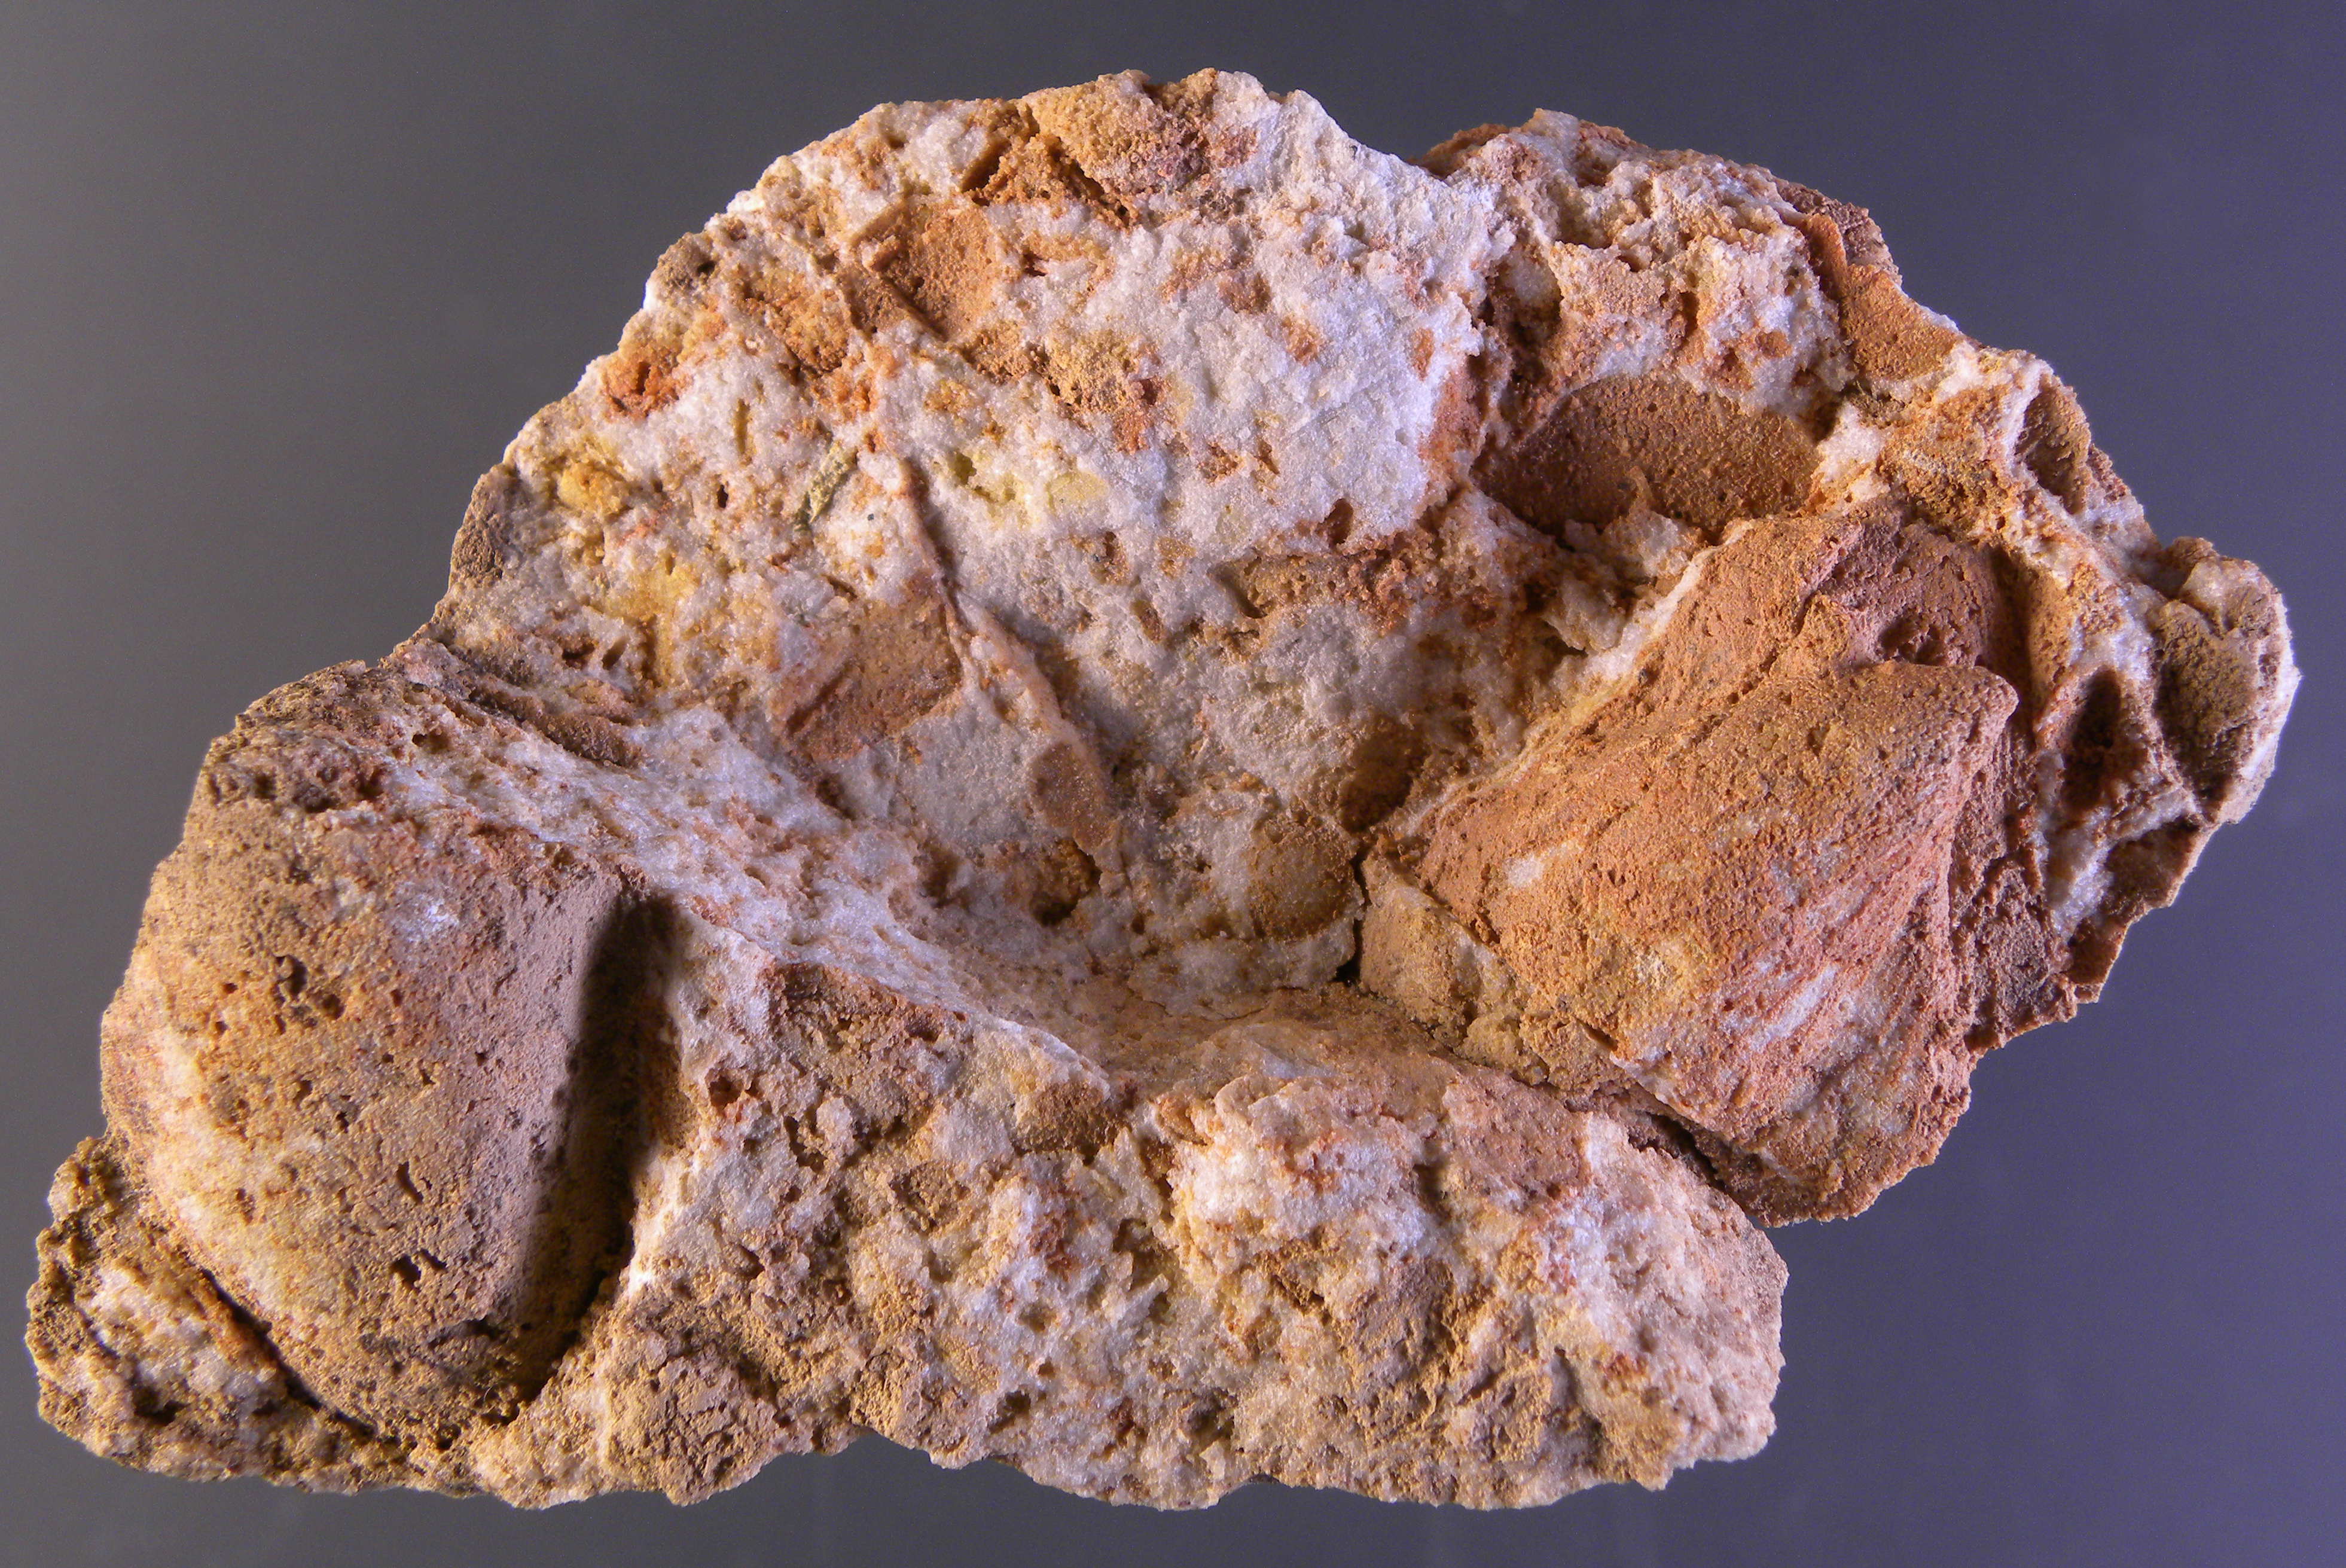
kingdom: Animalia
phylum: Mollusca
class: Bivalvia
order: Ostreida
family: Pterineidae
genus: Ptychopteria
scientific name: Ptychopteria
